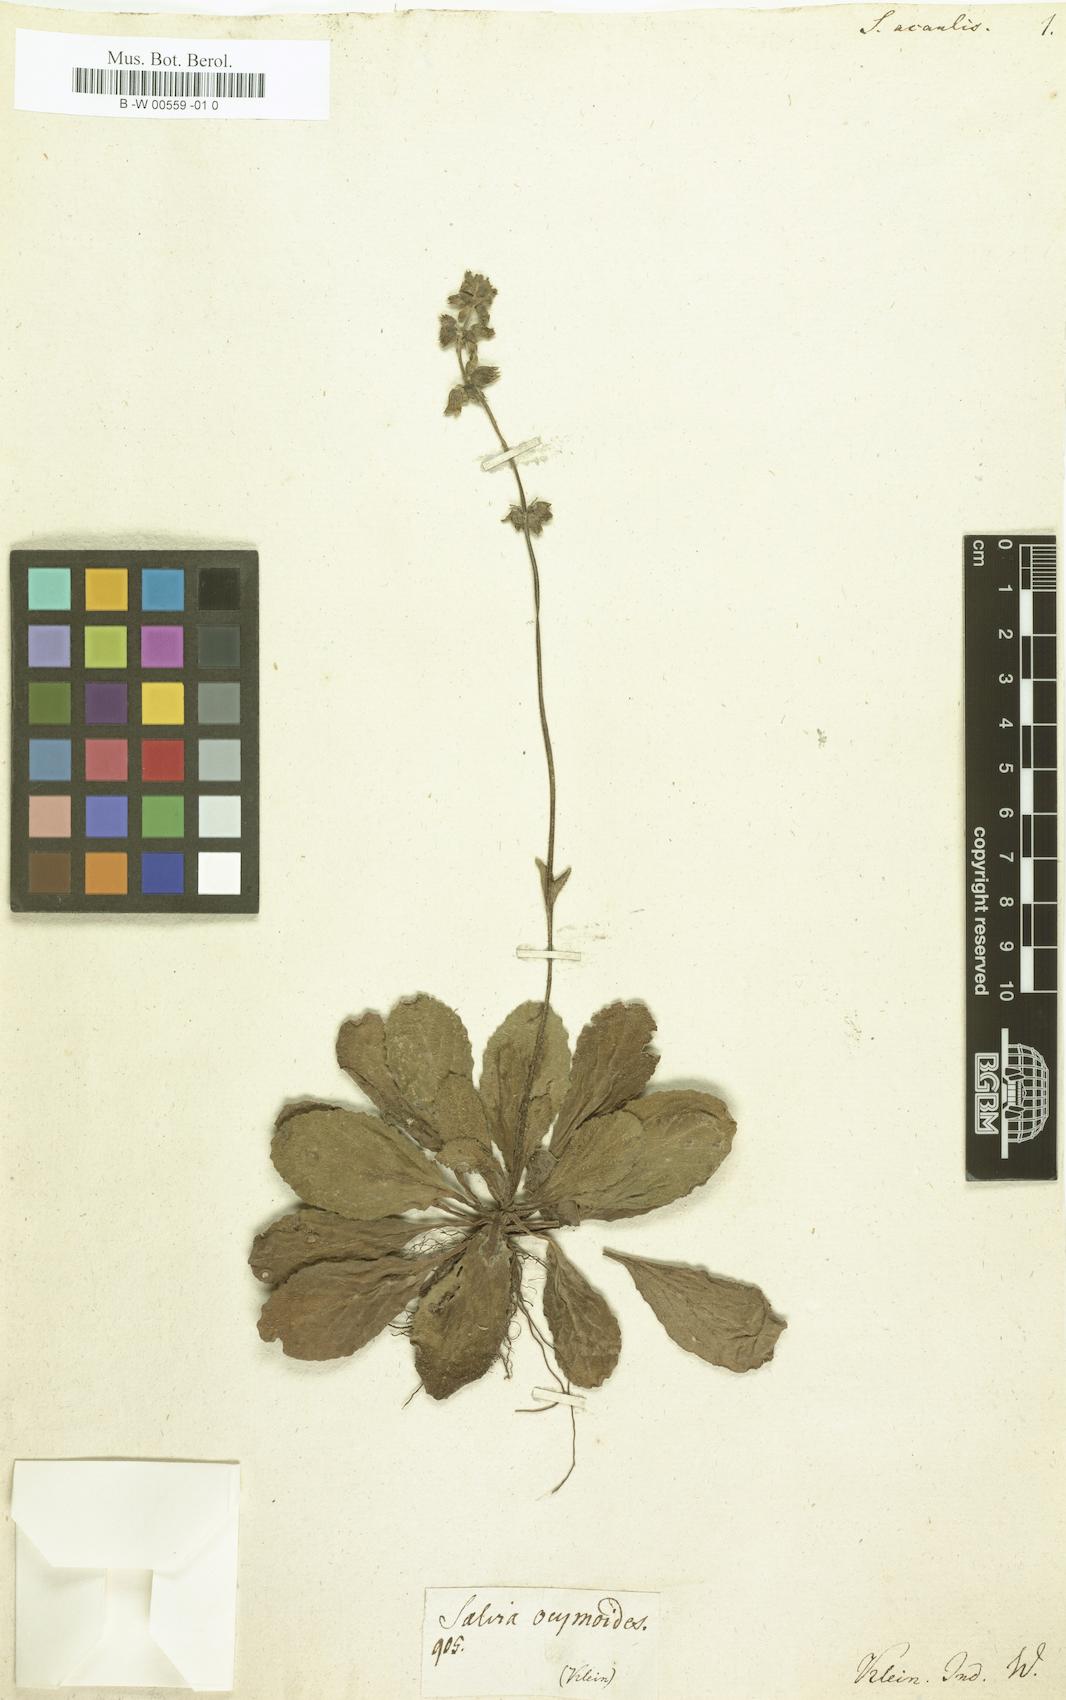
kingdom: Plantae
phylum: Tracheophyta
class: Magnoliopsida
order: Lamiales
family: Lamiaceae
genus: Salvia
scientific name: Salvia lyrata
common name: Cancerweed
